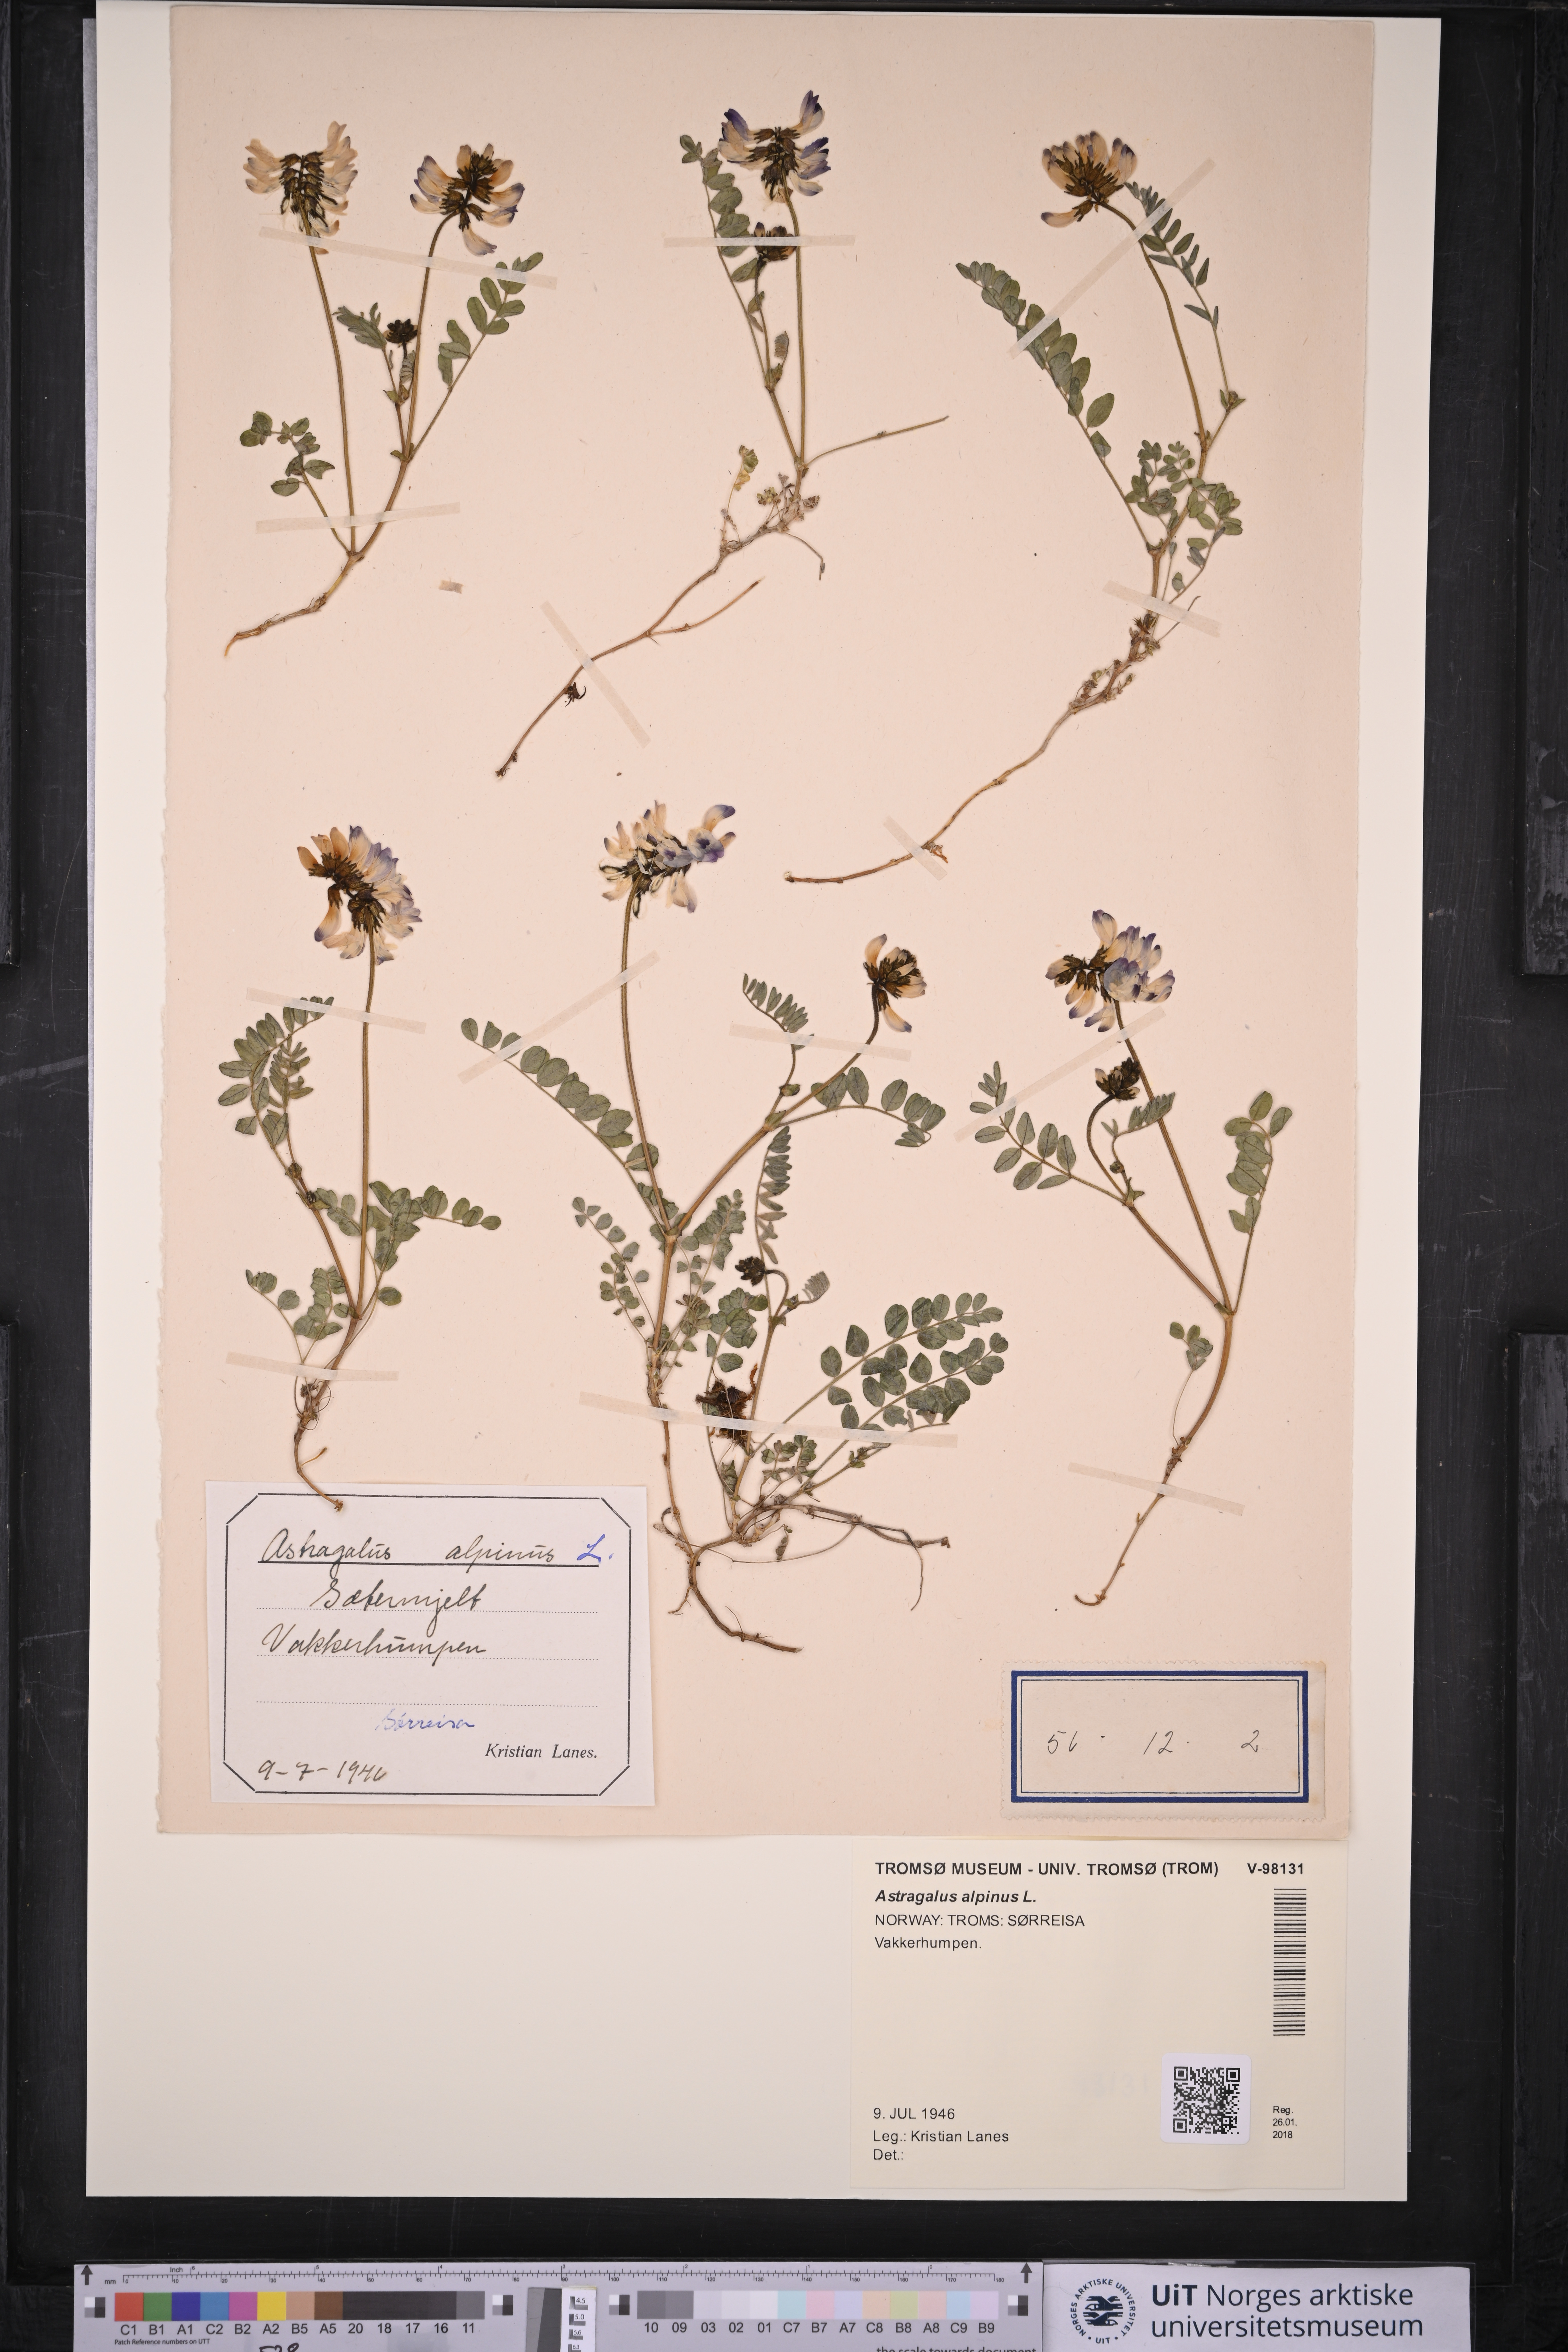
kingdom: Plantae
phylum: Tracheophyta
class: Magnoliopsida
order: Fabales
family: Fabaceae
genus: Astragalus
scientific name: Astragalus alpinus
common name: Alpine milk-vetch
